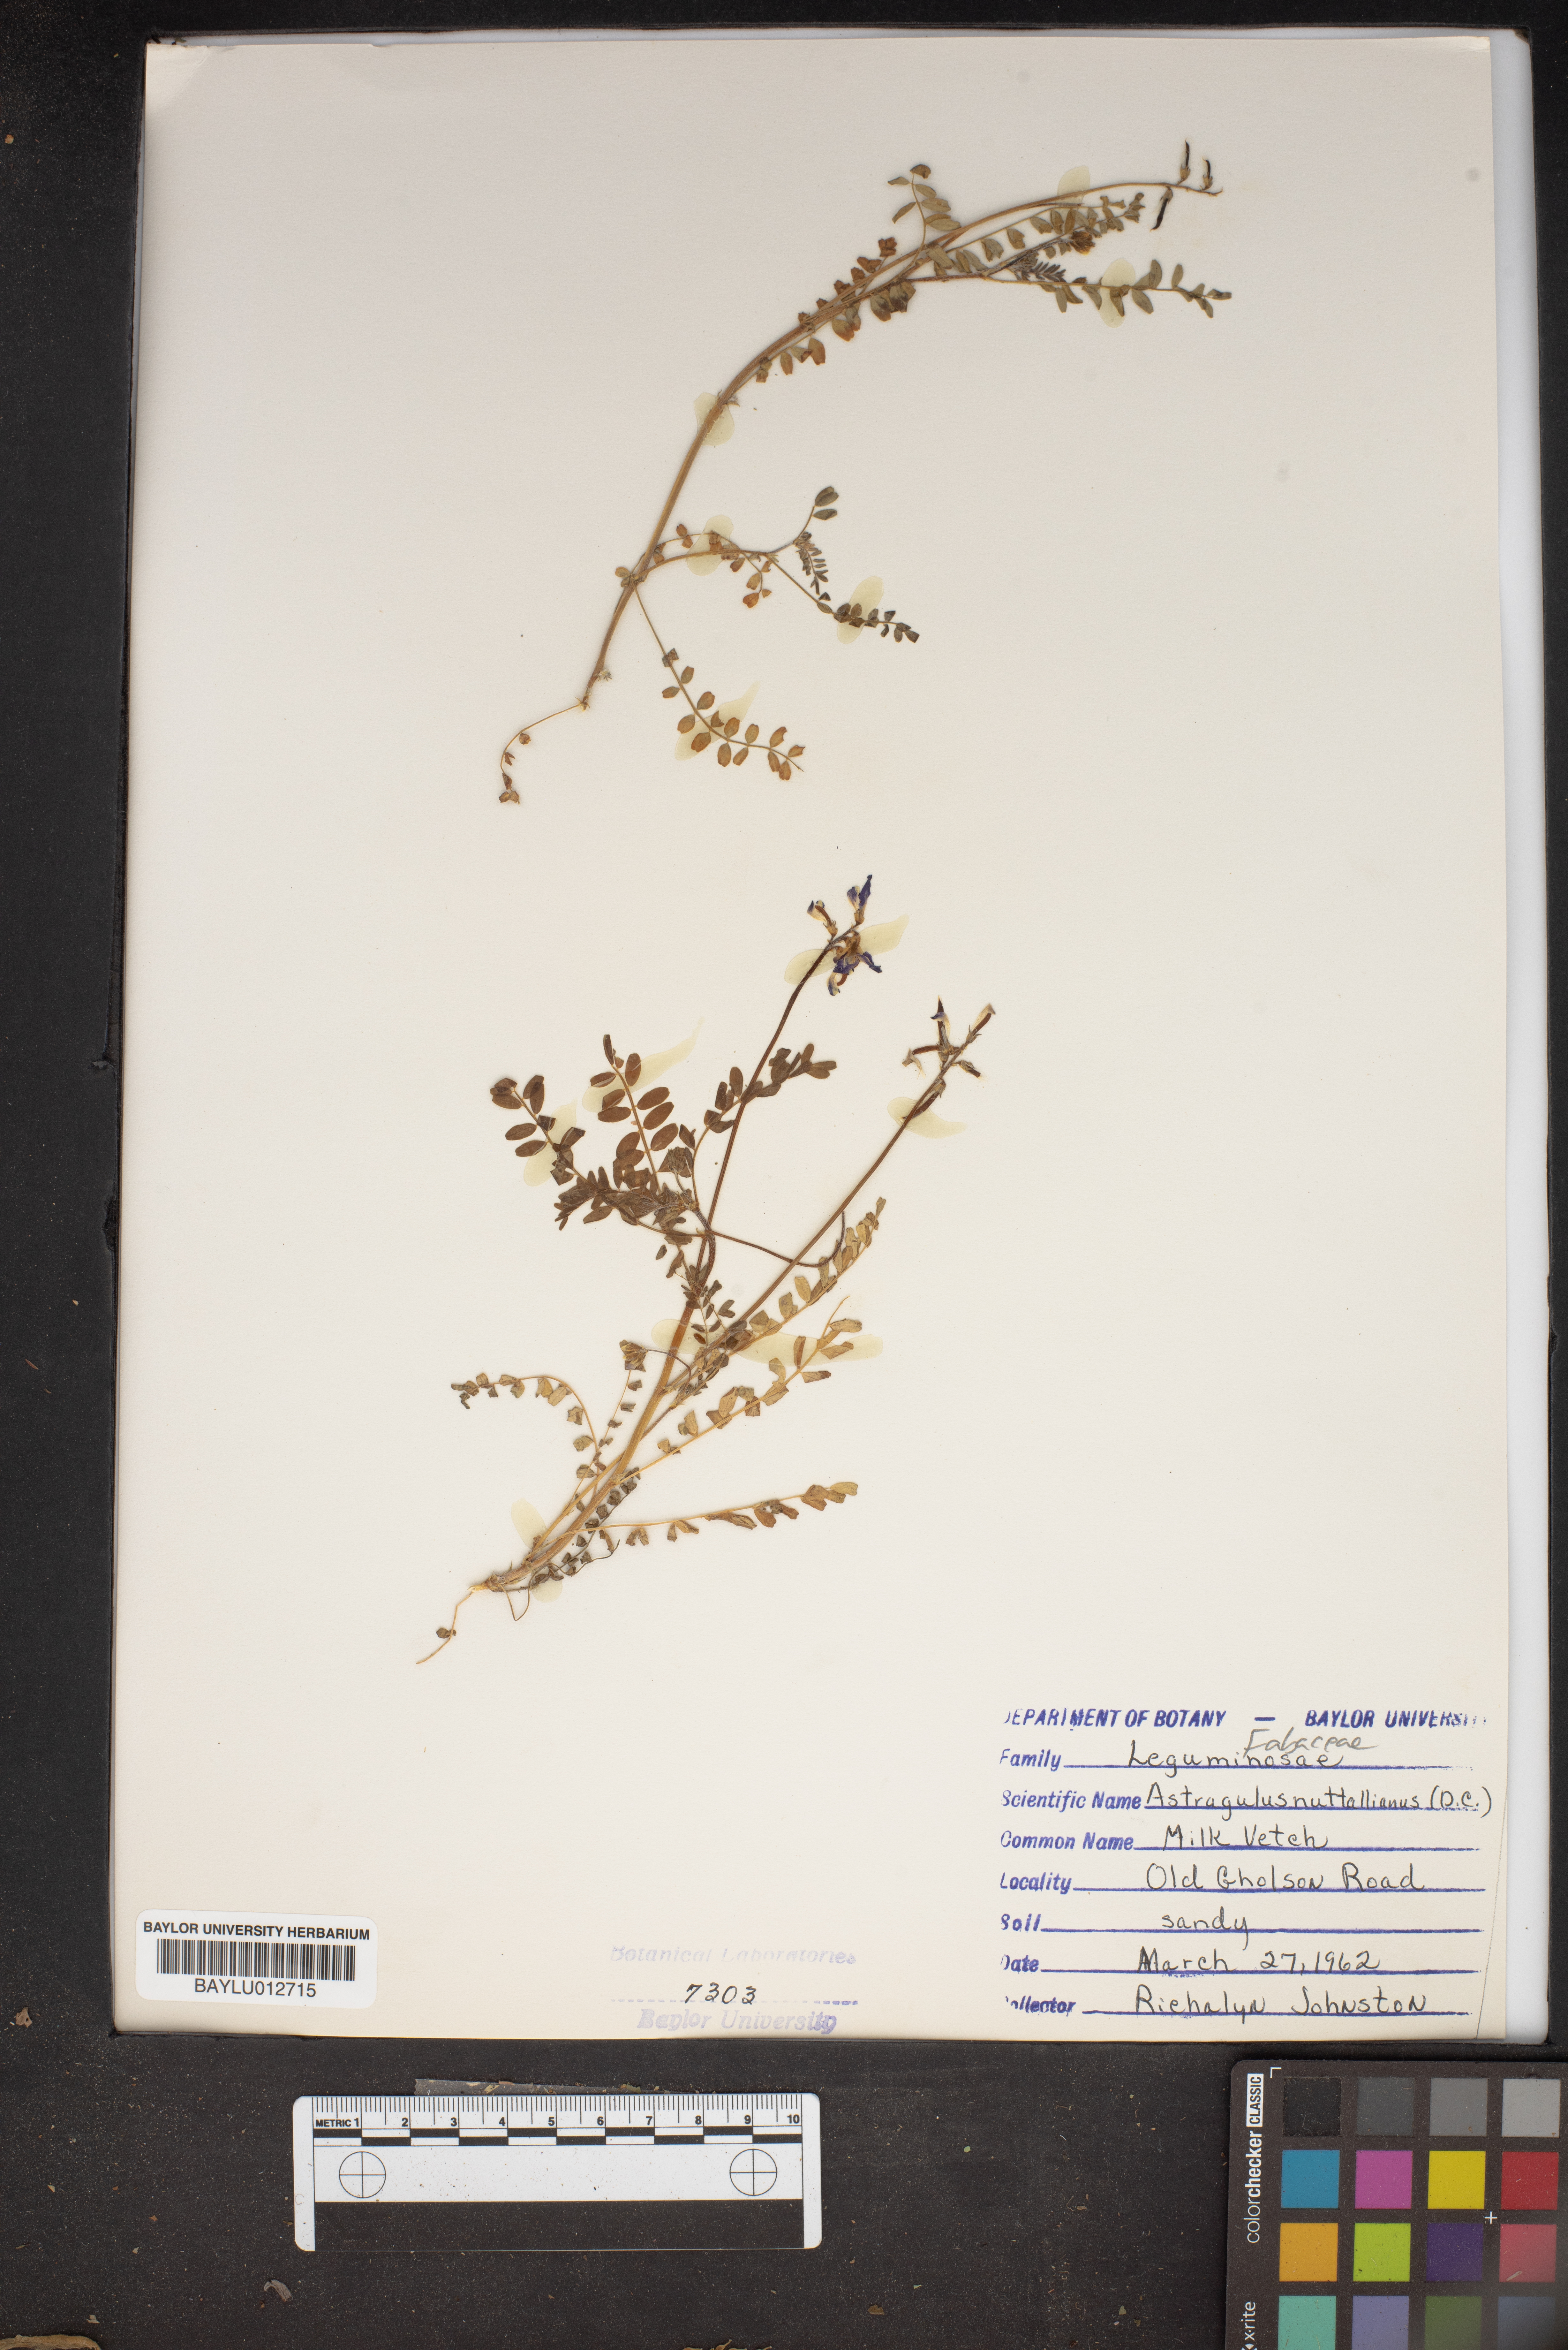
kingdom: Plantae
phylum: Tracheophyta
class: Magnoliopsida
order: Fabales
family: Fabaceae
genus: Astragalus
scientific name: Astragalus nuttallianus
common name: Smallflowered milkvetch
